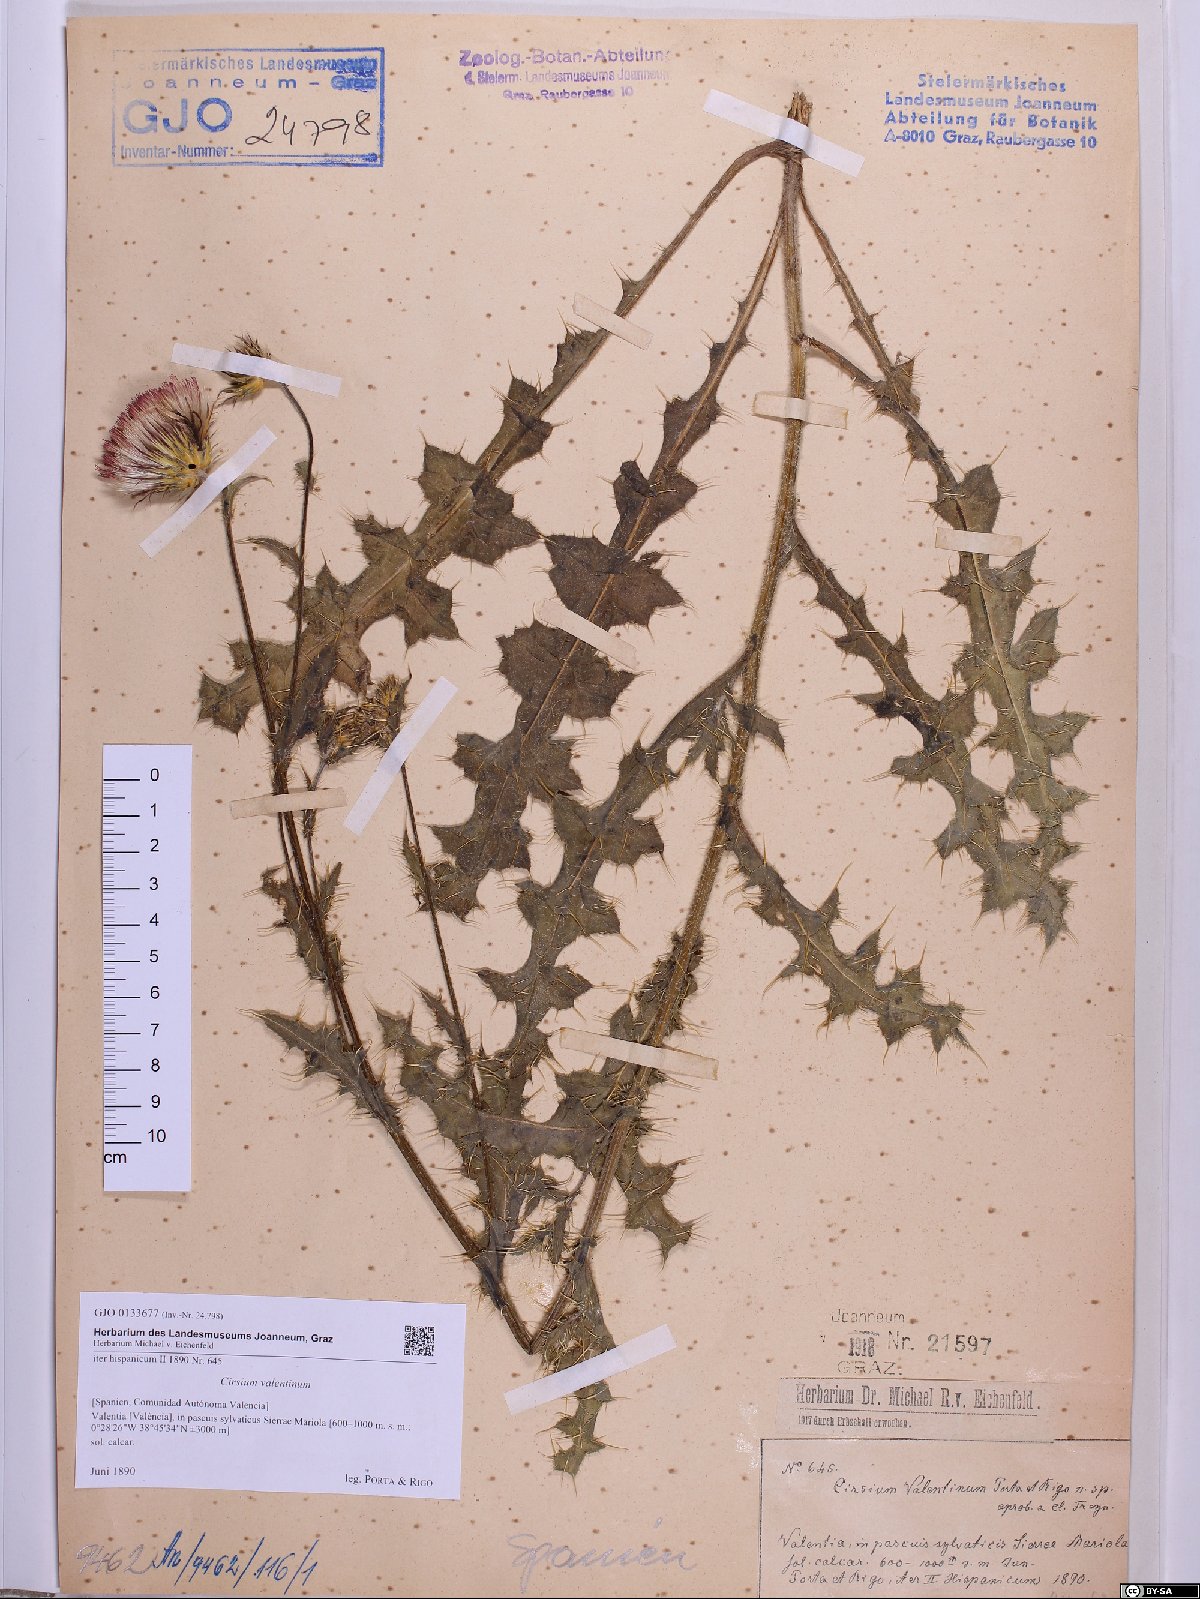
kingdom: Plantae
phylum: Tracheophyta
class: Magnoliopsida
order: Asterales
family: Asteraceae
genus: Cirsium
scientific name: Cirsium valentinum
